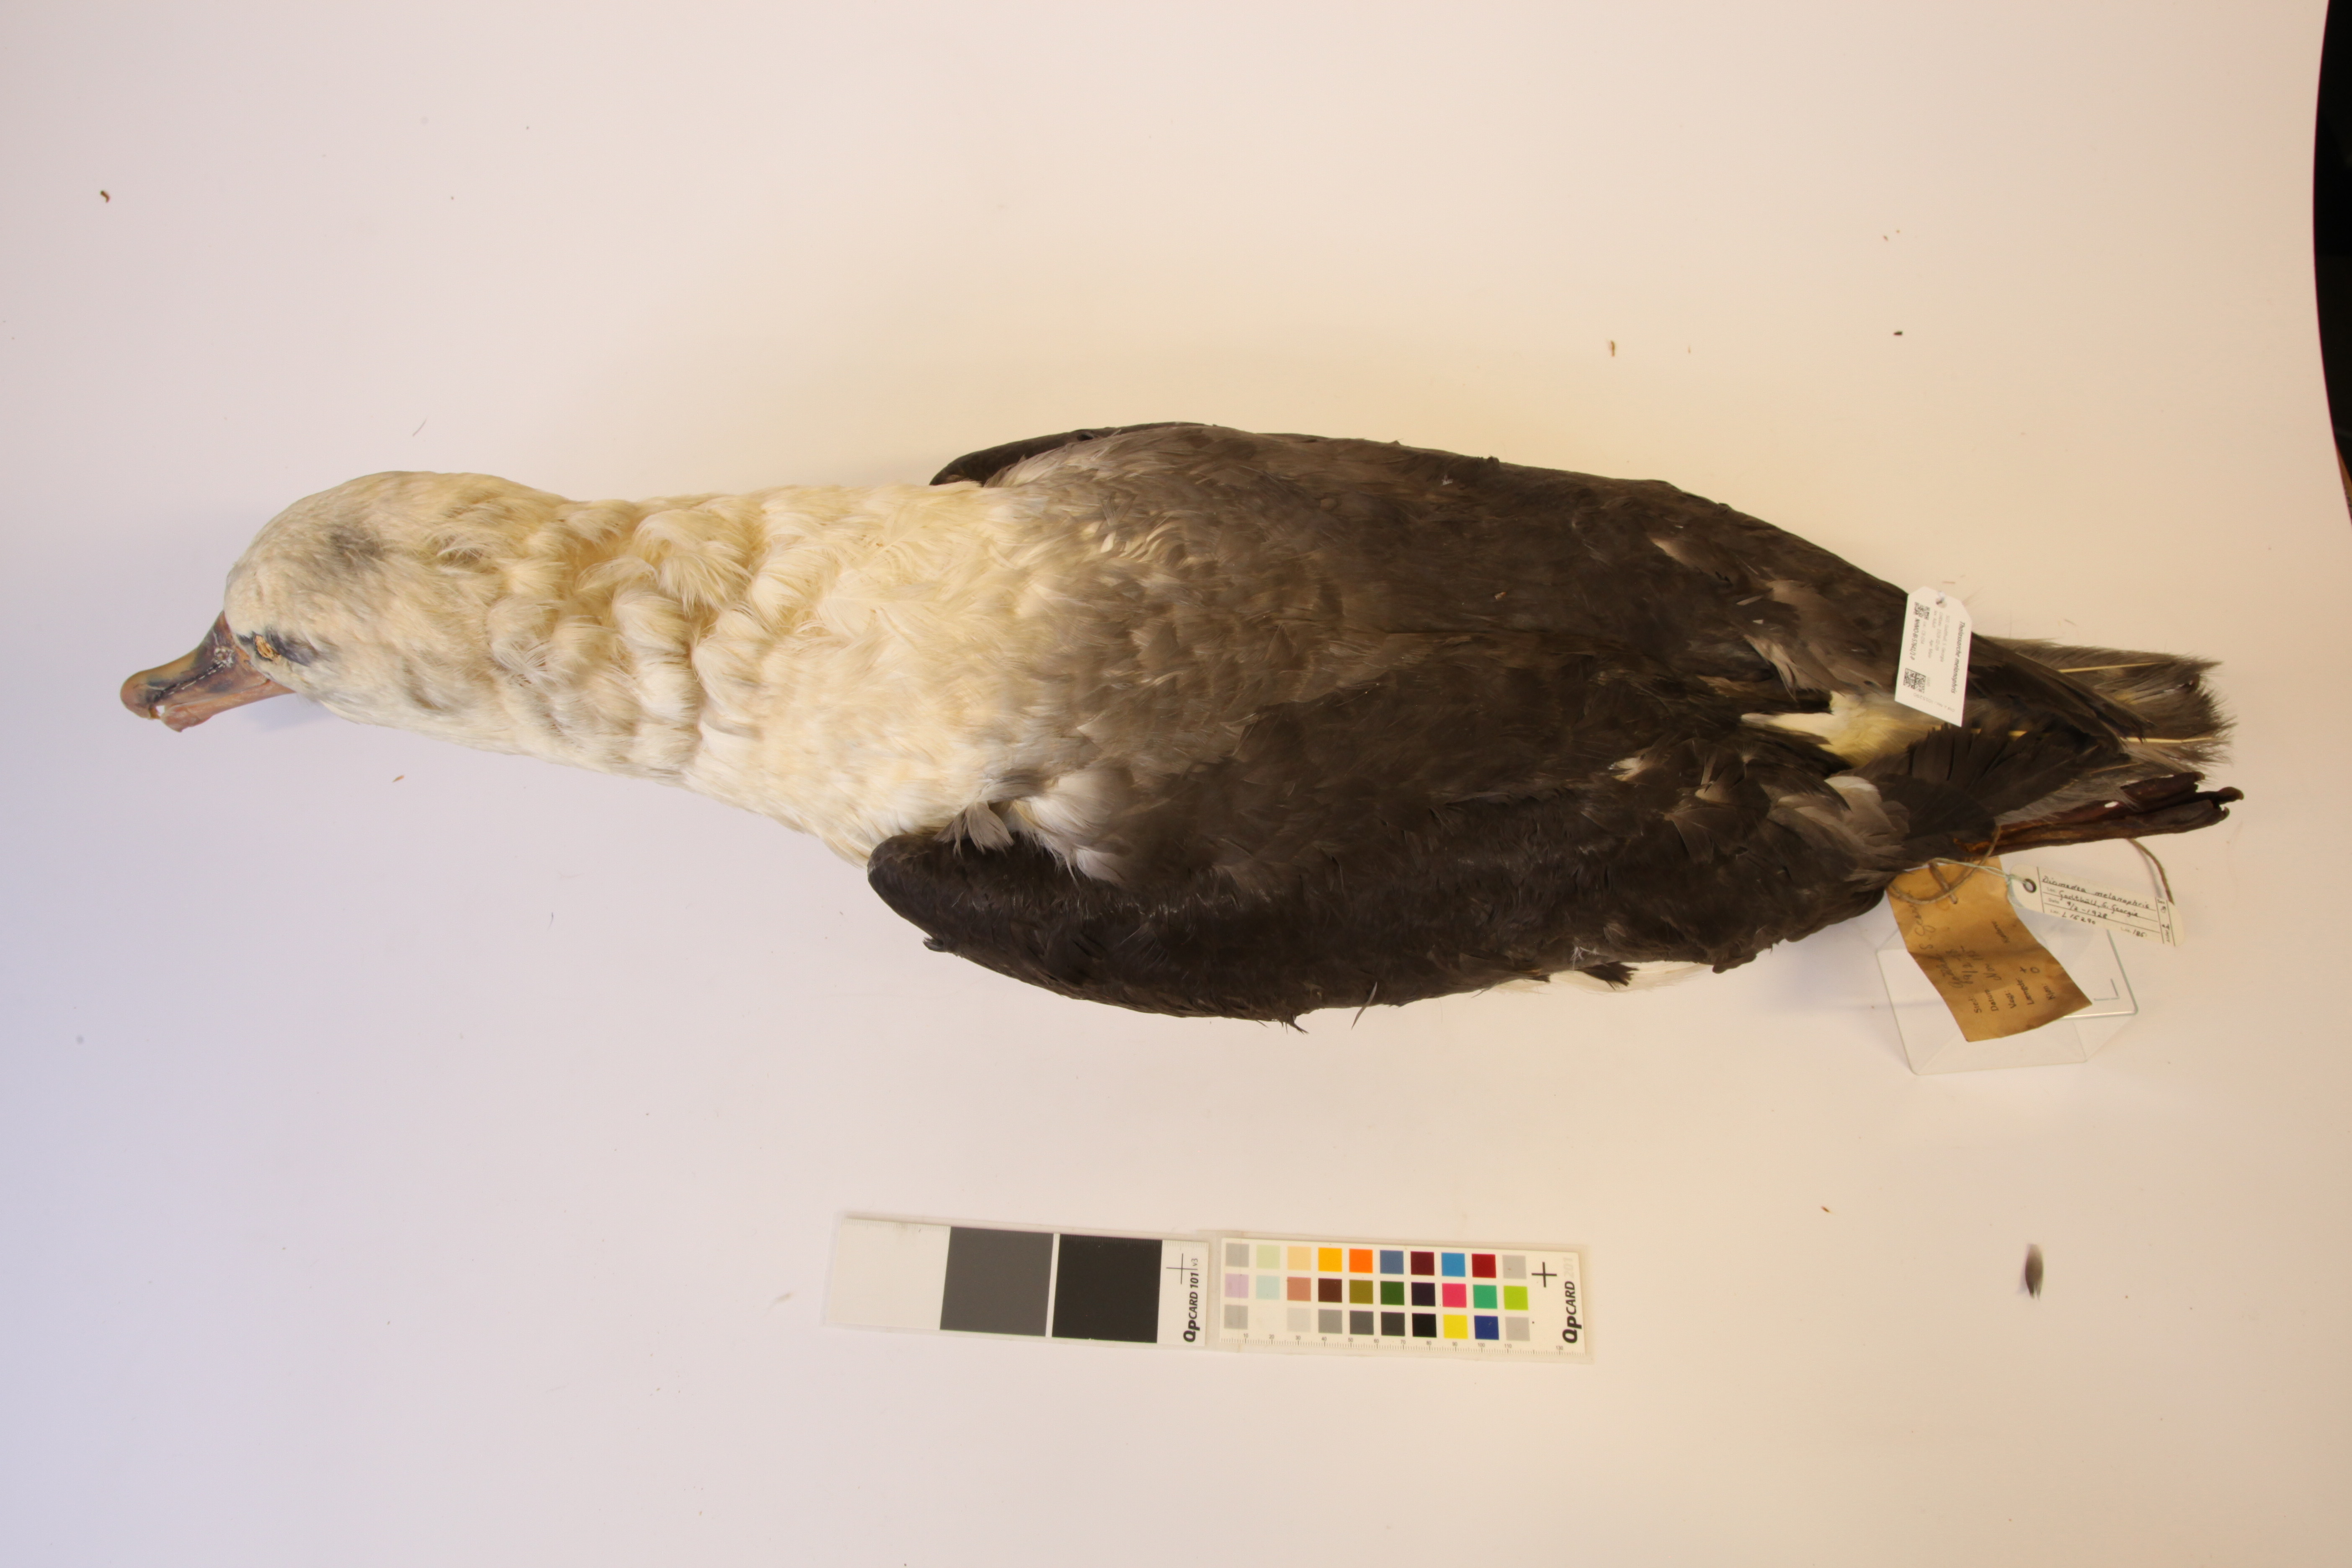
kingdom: Animalia
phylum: Chordata
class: Aves
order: Procellariiformes
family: Diomedeidae
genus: Thalassarche
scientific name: Thalassarche melanophris
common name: Black-browed albatross
